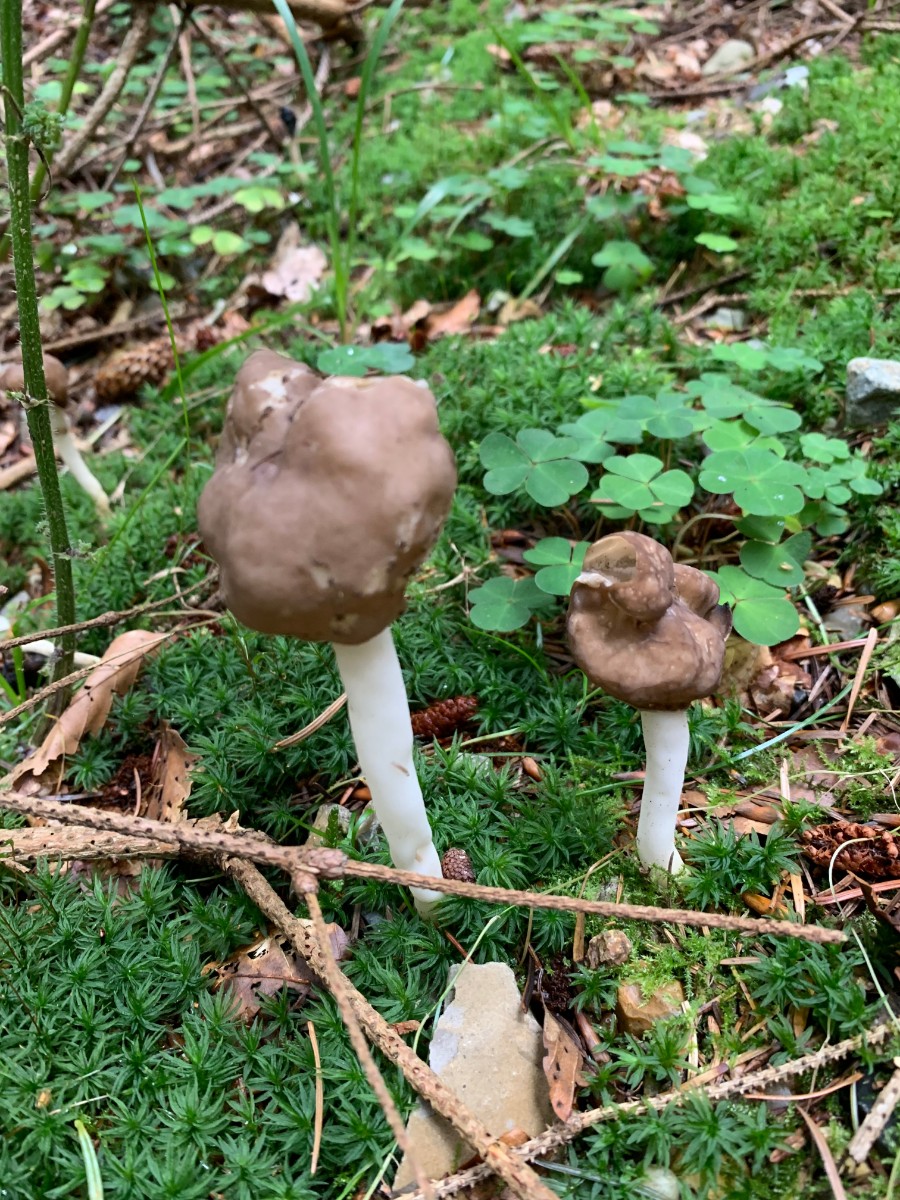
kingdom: Fungi
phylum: Ascomycota
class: Pezizomycetes
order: Pezizales
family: Helvellaceae
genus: Helvella
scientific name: Helvella elastica
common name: elastik-foldhat
